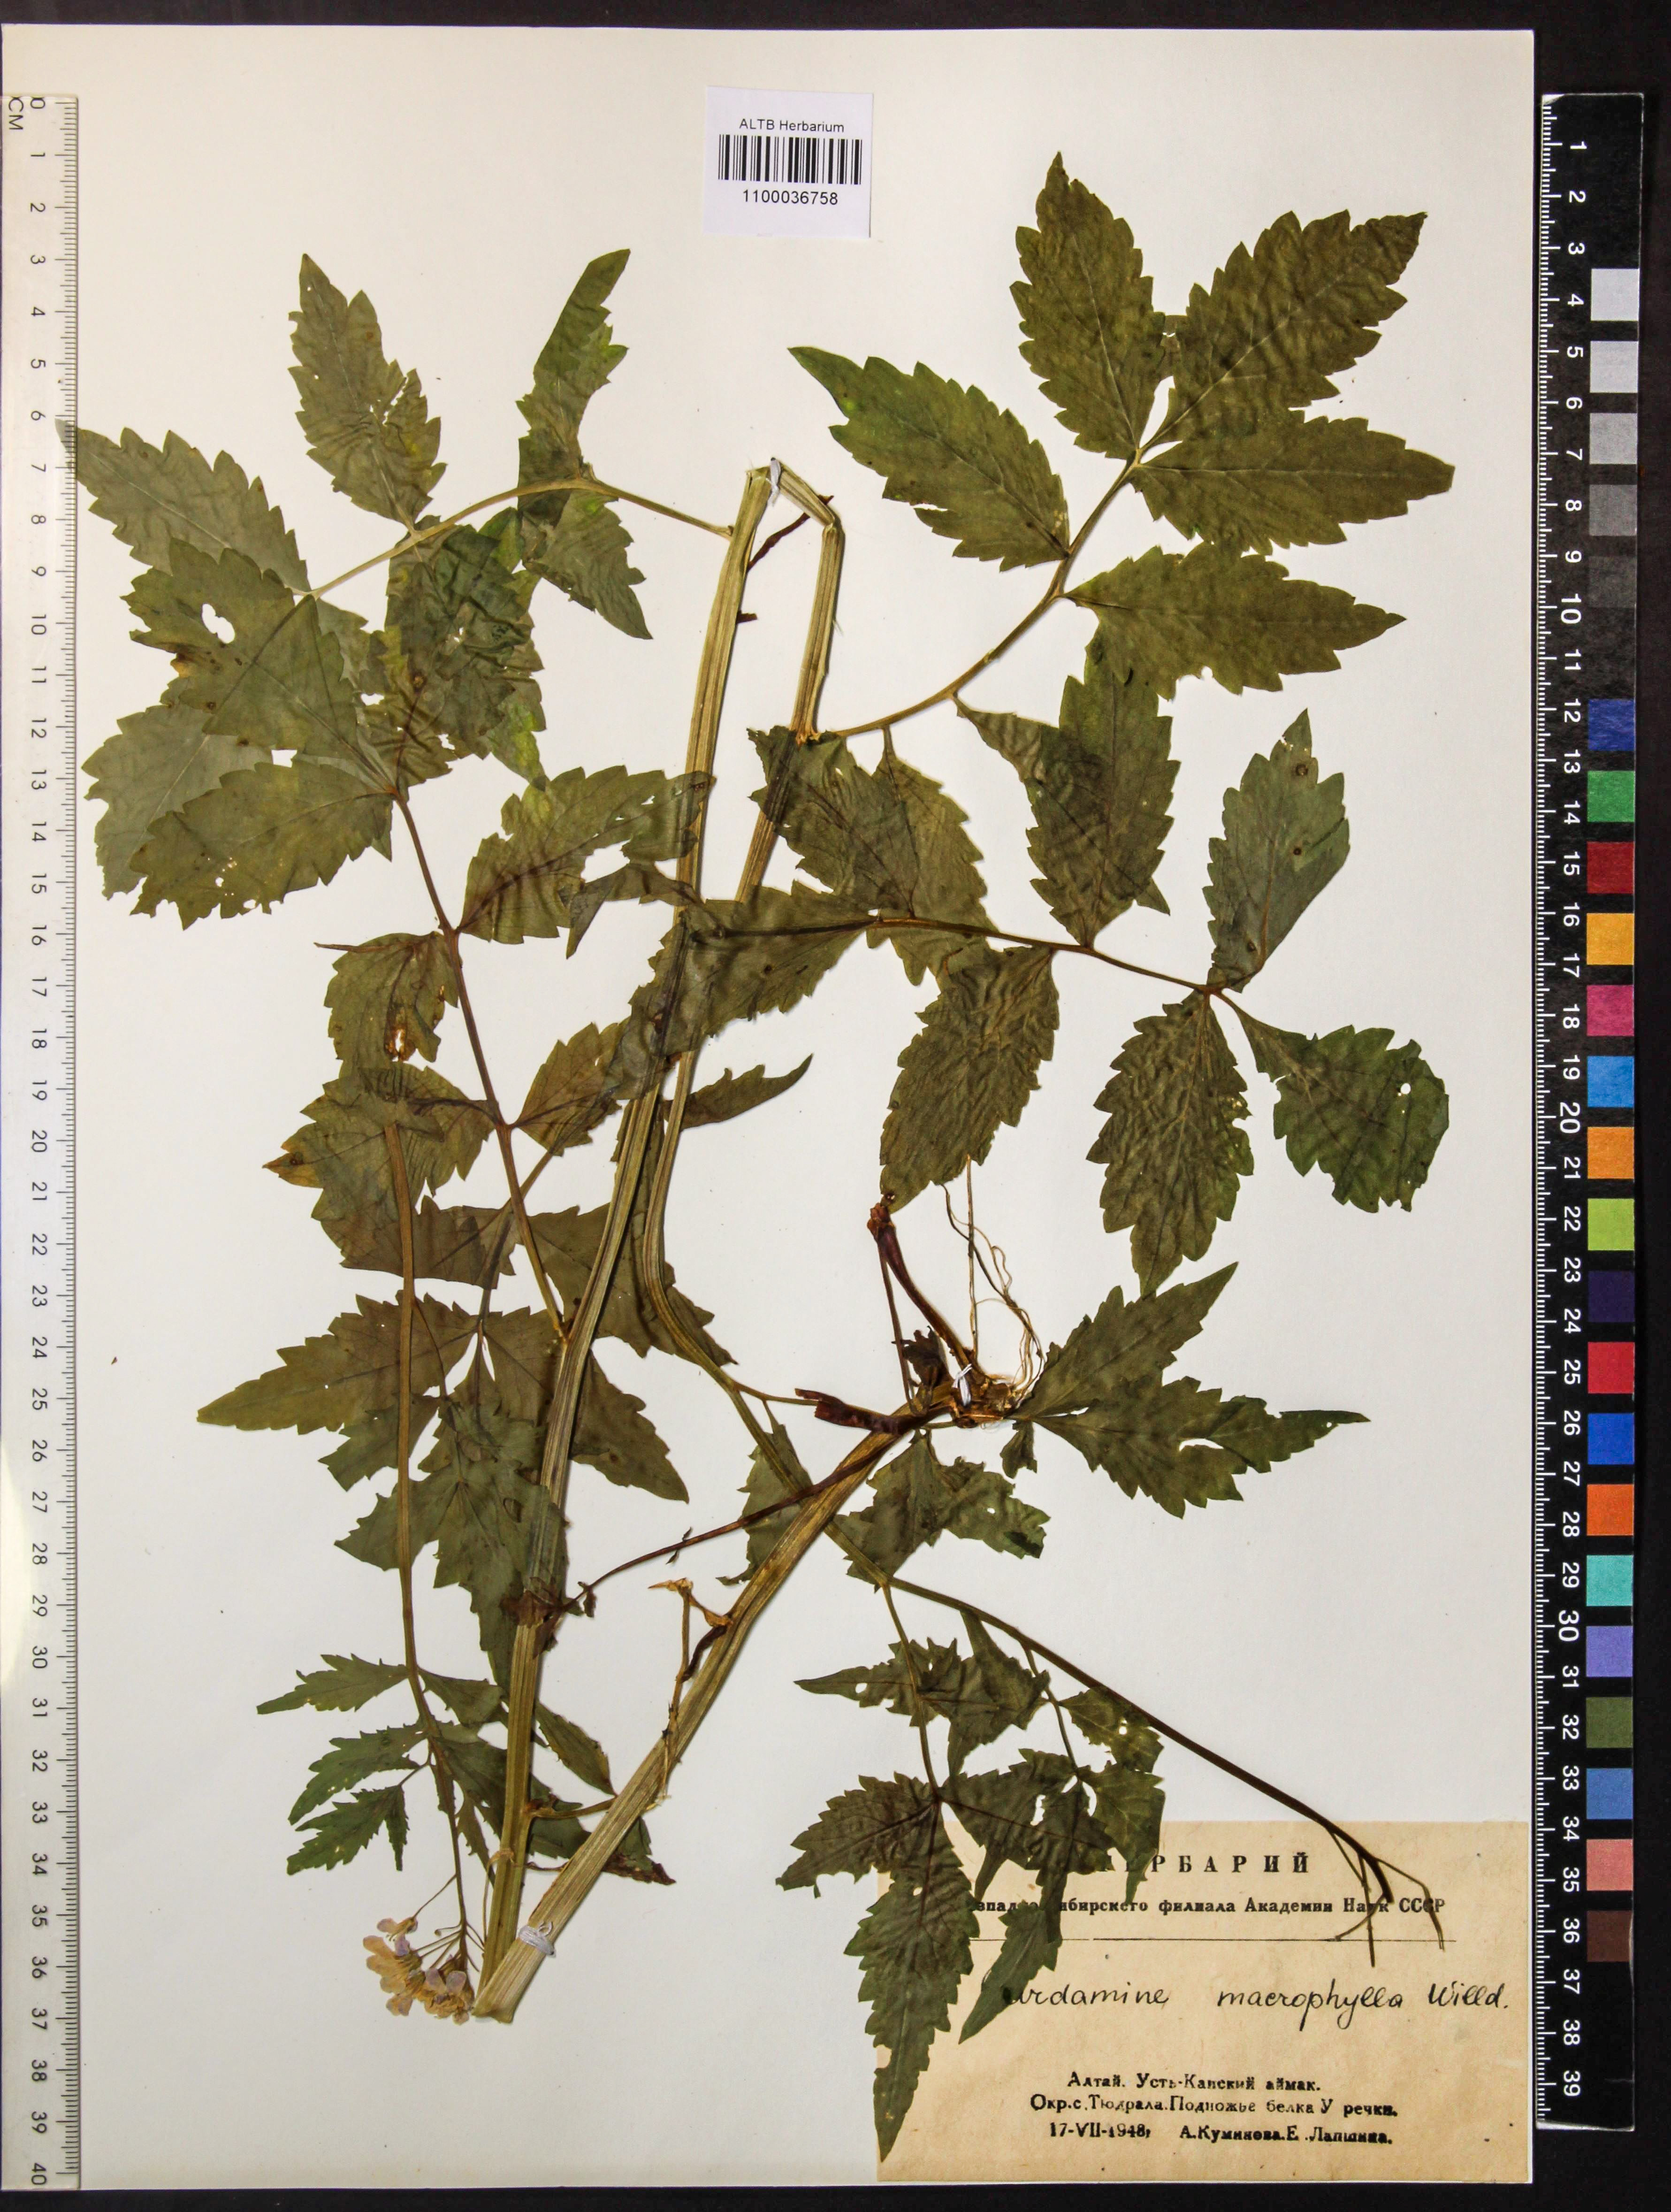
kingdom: Plantae
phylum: Tracheophyta
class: Magnoliopsida
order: Brassicales
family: Brassicaceae
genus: Cardamine
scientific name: Cardamine macrophylla
